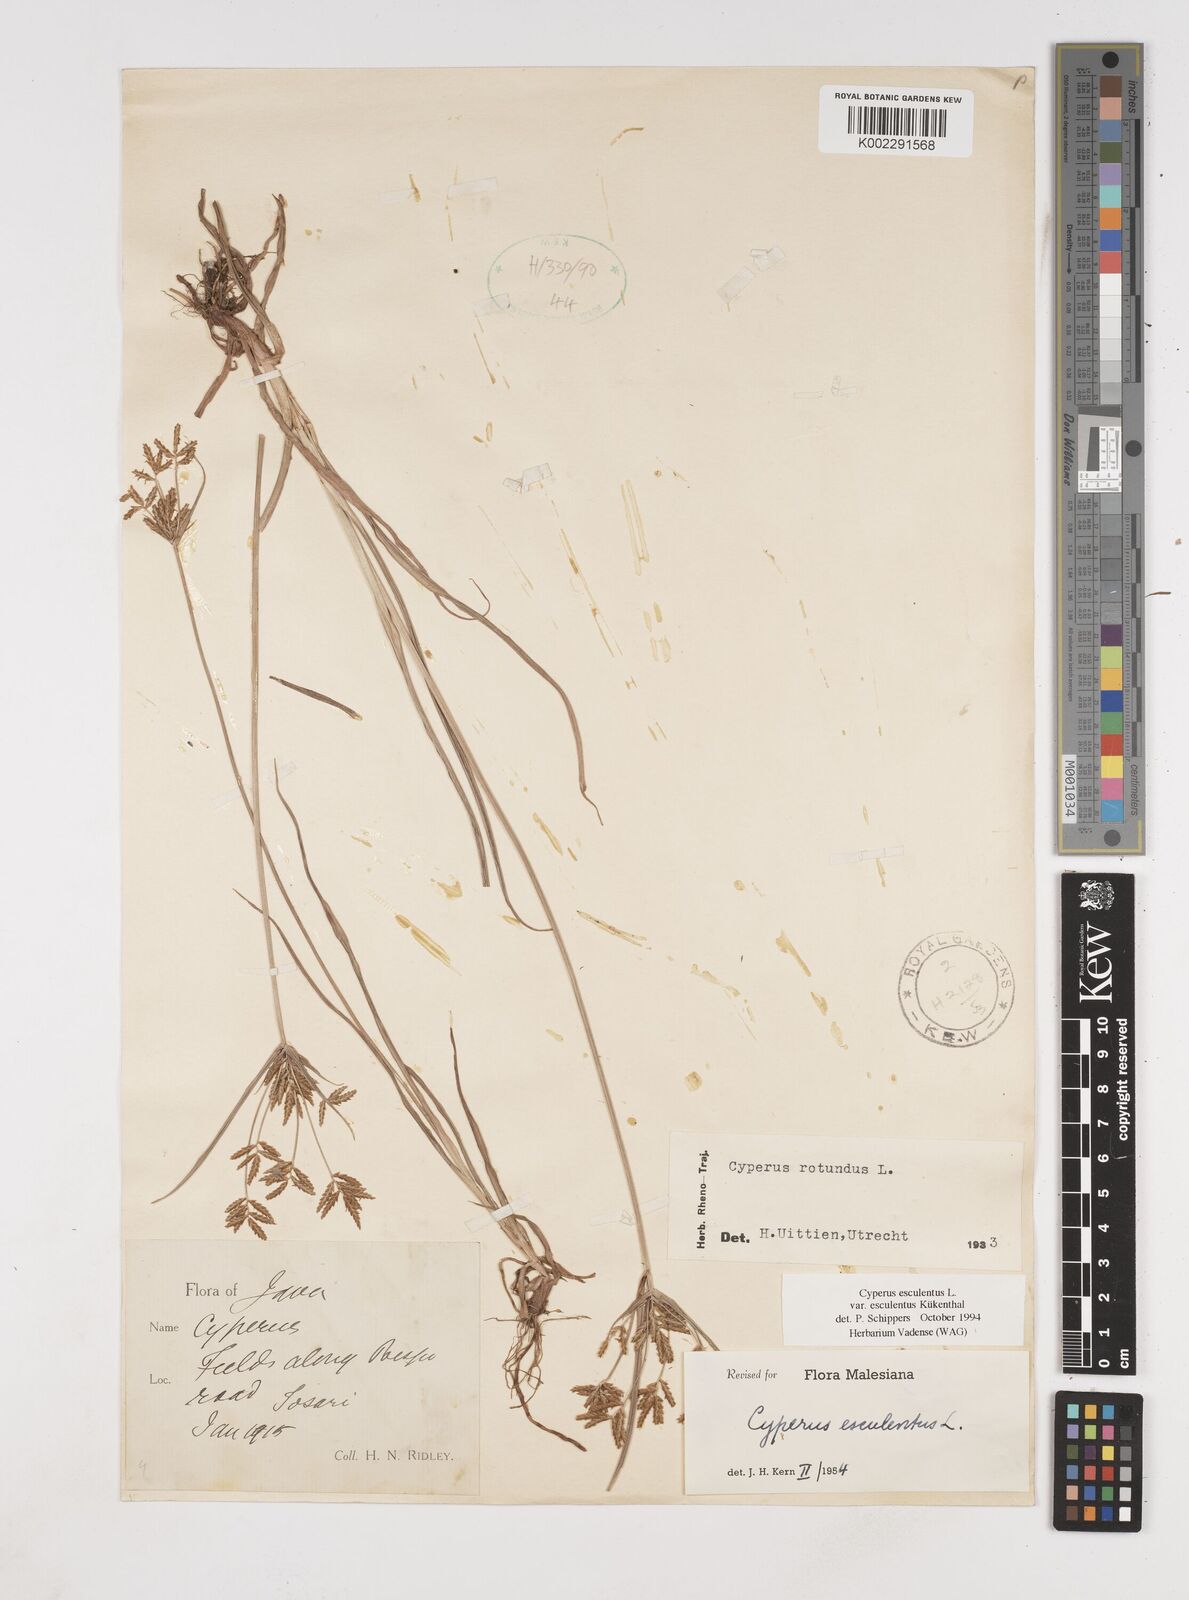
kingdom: Plantae
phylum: Tracheophyta
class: Liliopsida
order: Poales
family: Cyperaceae
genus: Cyperus
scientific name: Cyperus esculentus
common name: Yellow nutsedge
